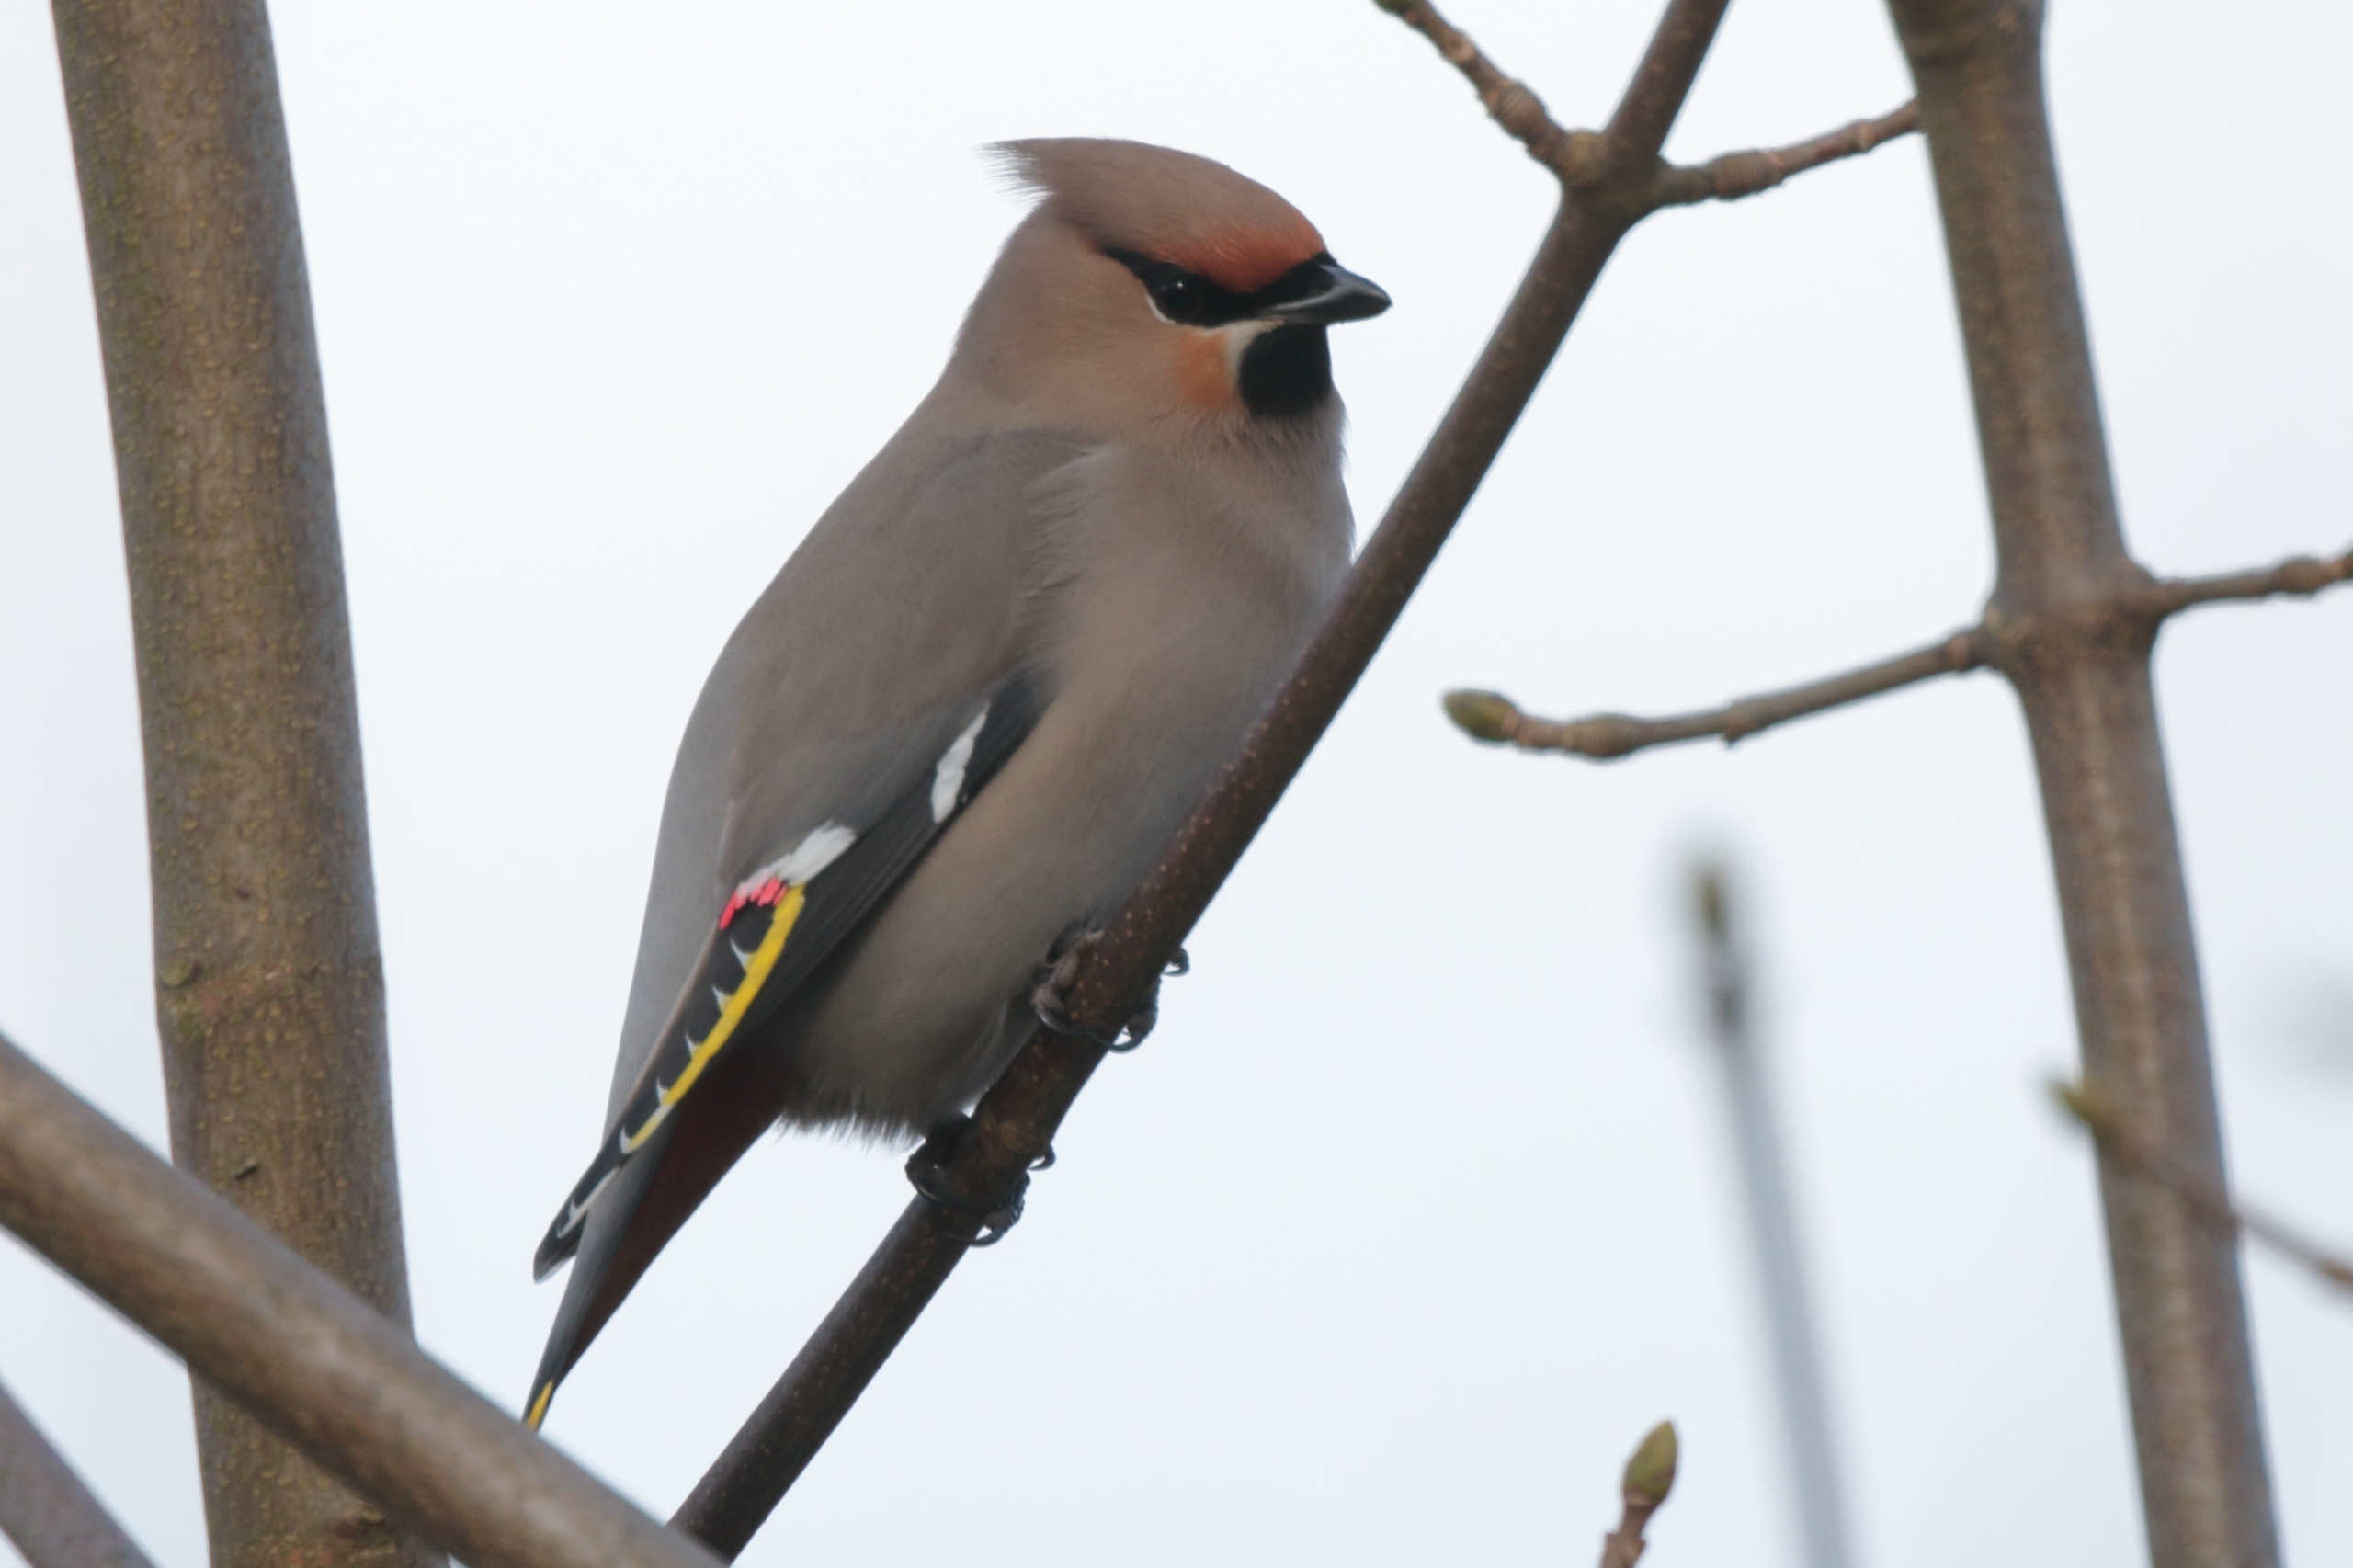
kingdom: Animalia
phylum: Chordata
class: Aves
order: Passeriformes
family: Bombycillidae
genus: Bombycilla
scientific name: Bombycilla garrulus
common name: Silkehale
